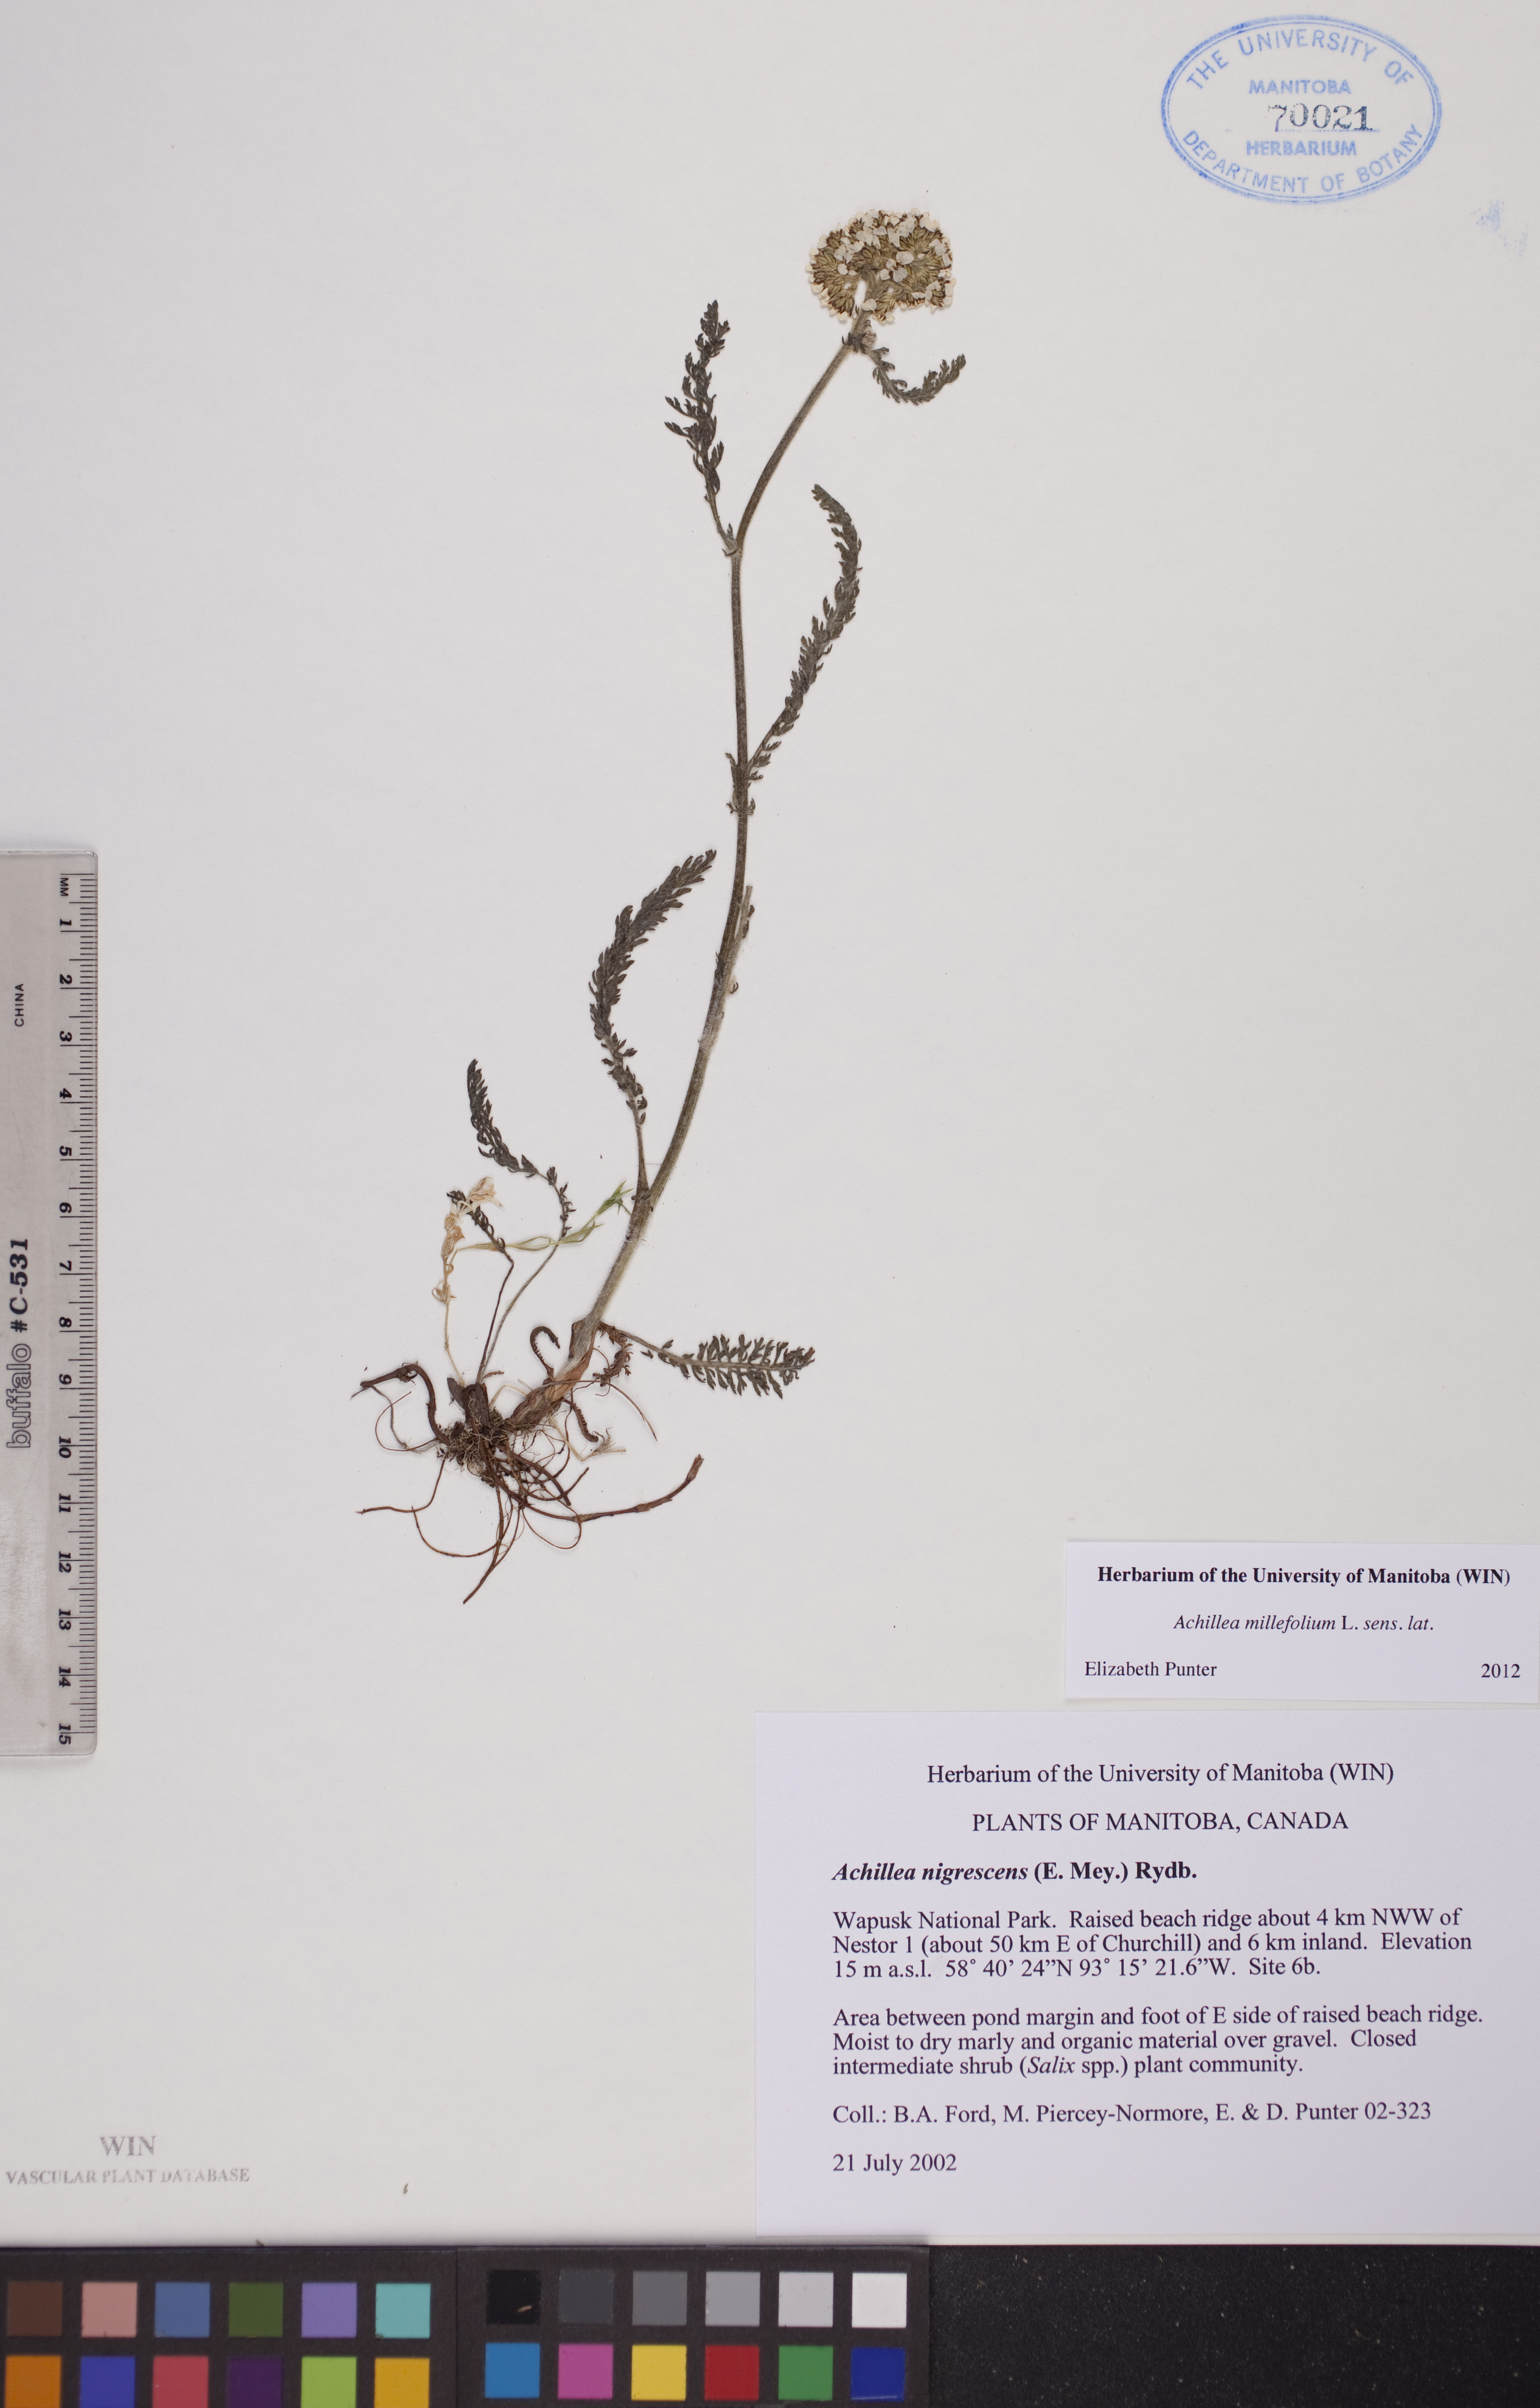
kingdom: Plantae
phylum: Tracheophyta
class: Magnoliopsida
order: Asterales
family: Asteraceae
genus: Achillea
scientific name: Achillea millefolium
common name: Yarrow
